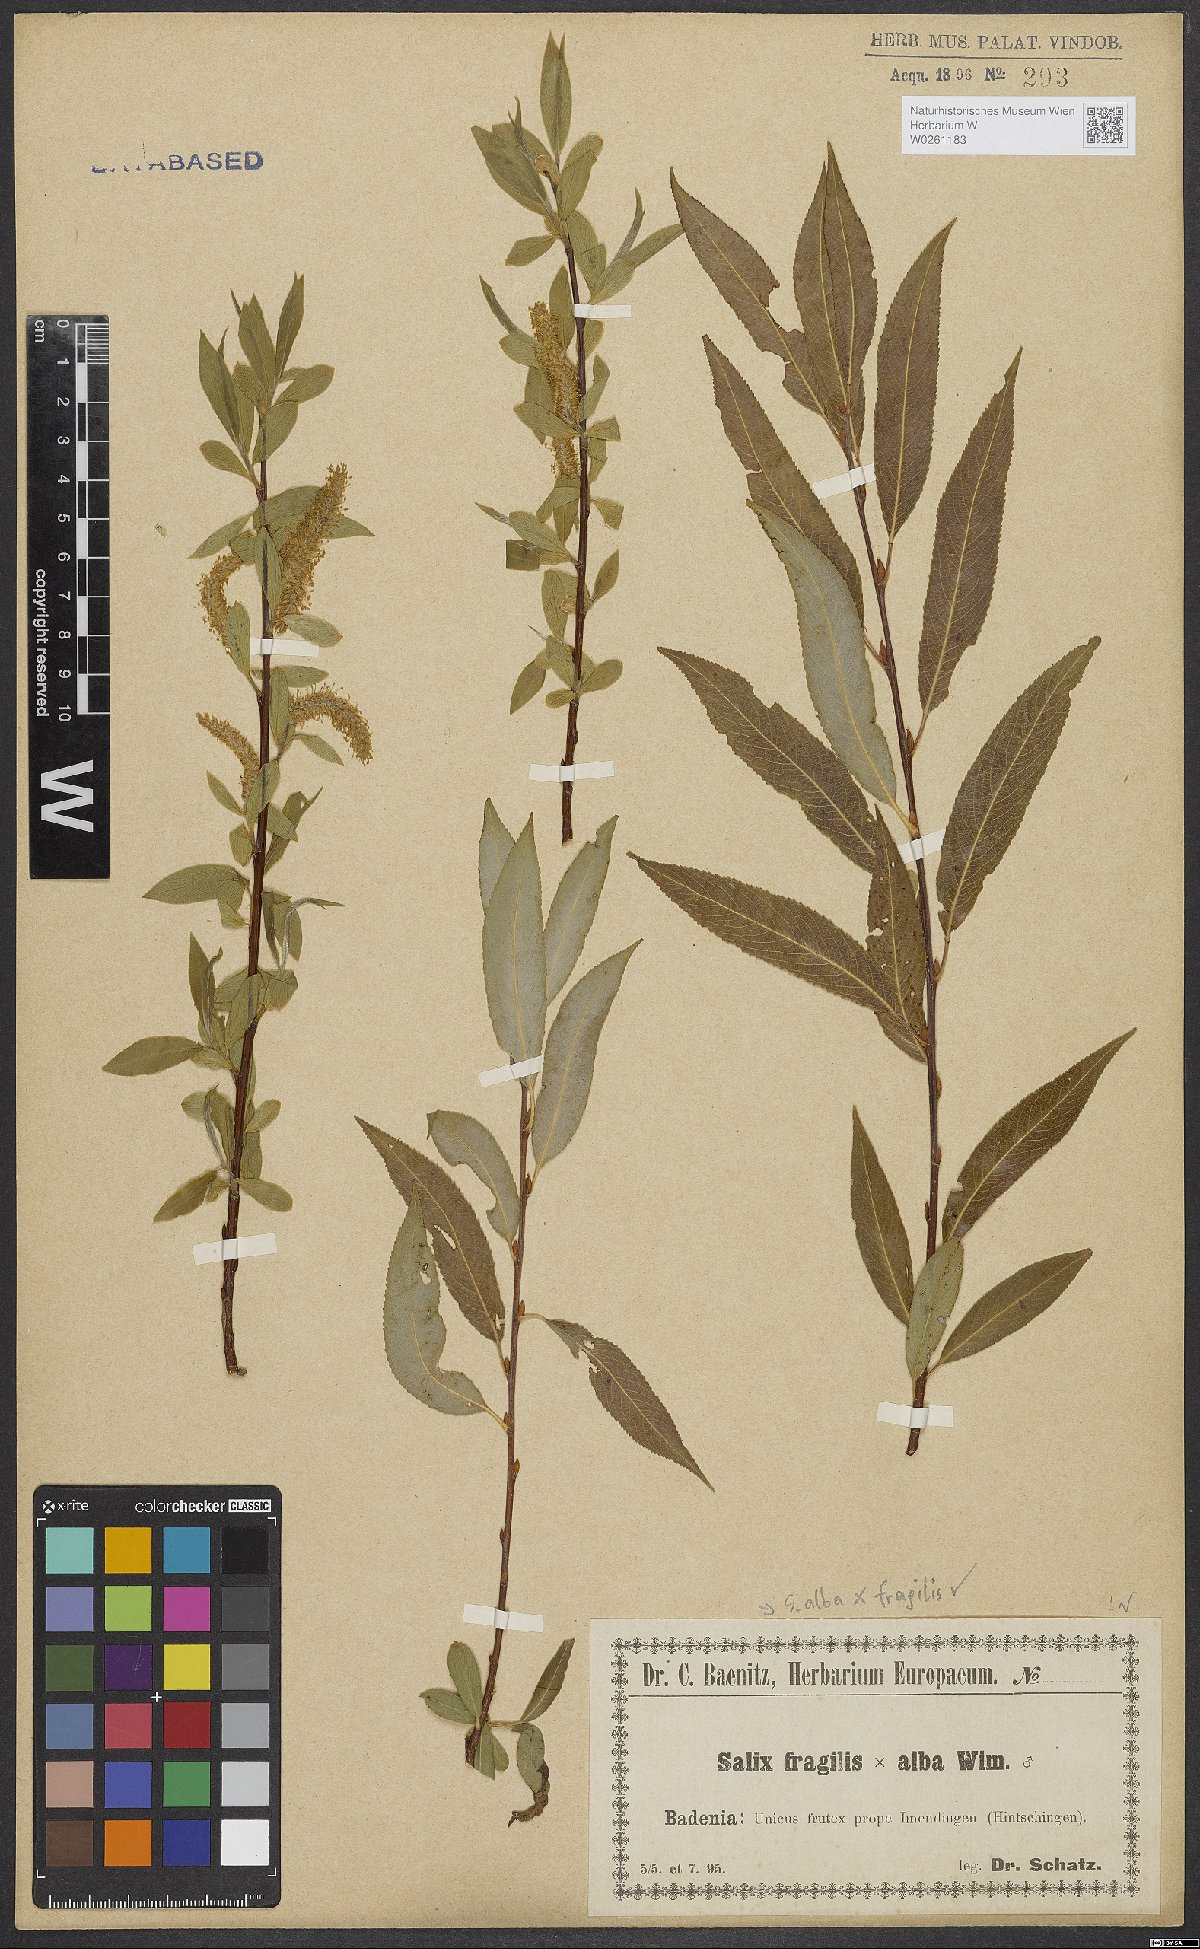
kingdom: Plantae
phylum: Tracheophyta
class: Magnoliopsida
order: Malpighiales
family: Salicaceae
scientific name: Salicaceae
